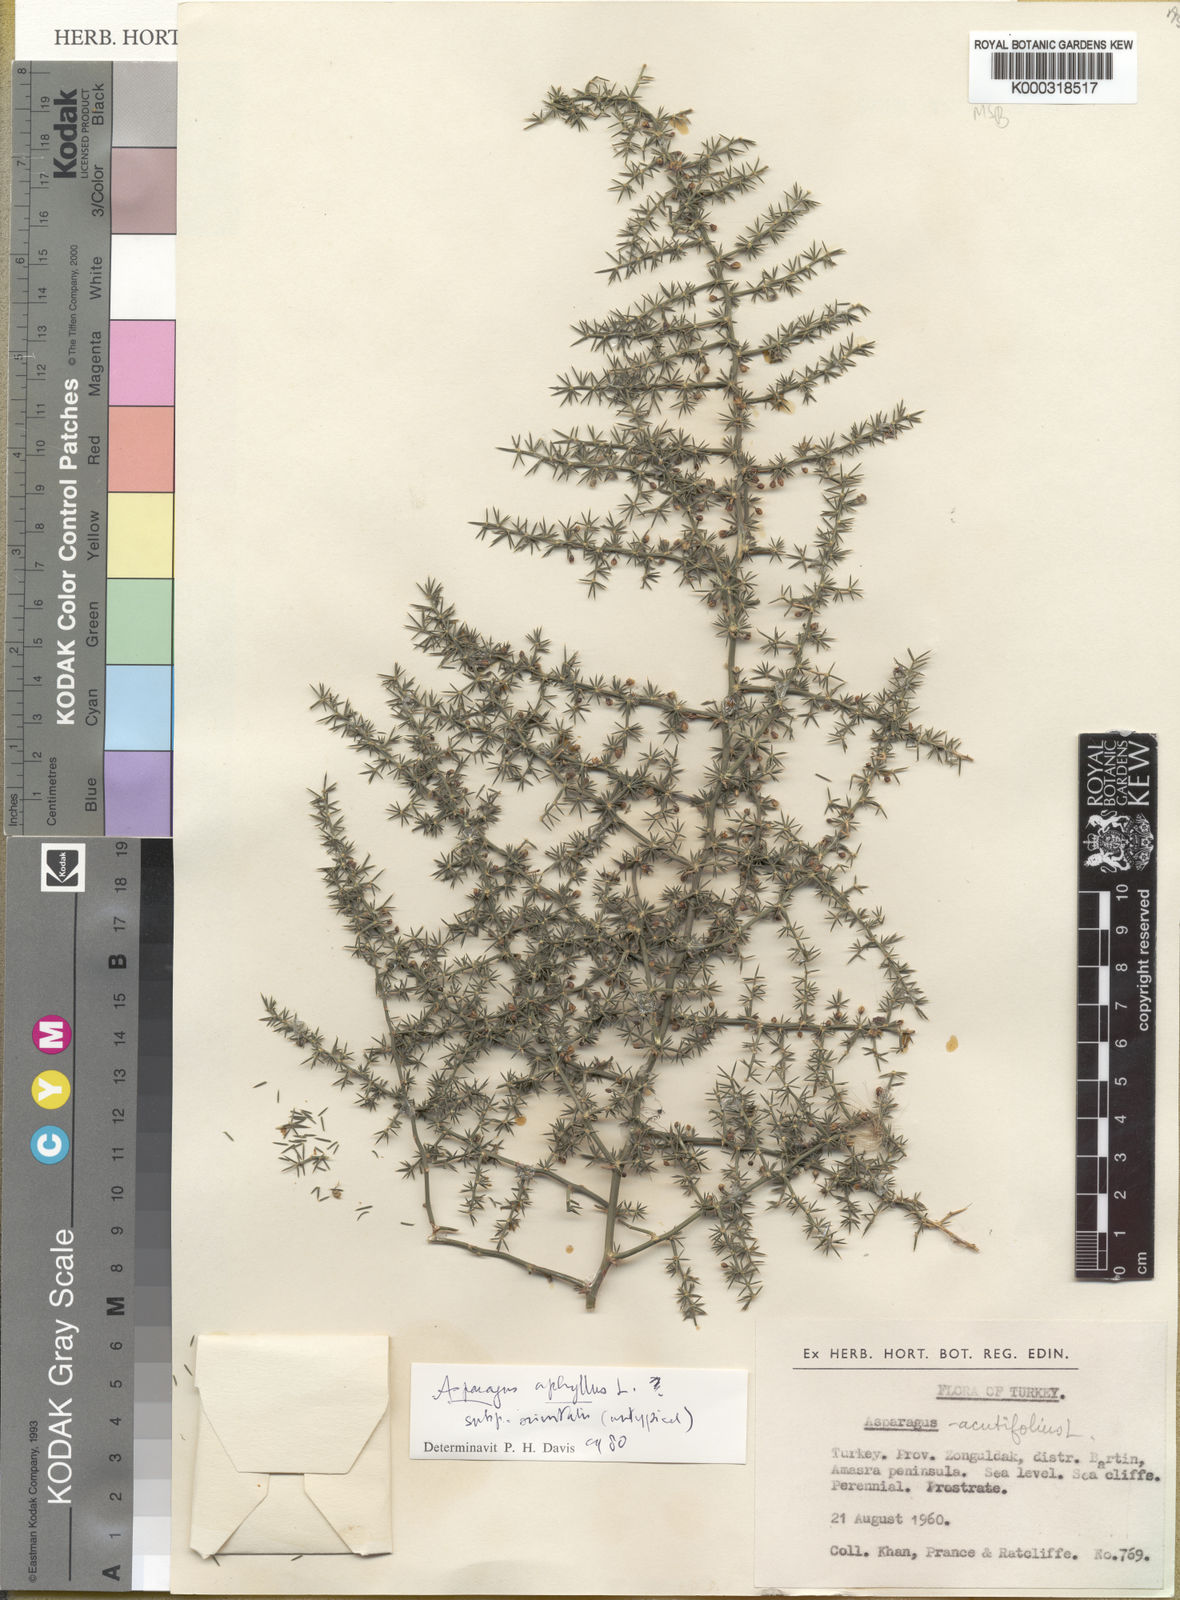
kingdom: Plantae
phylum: Tracheophyta
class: Liliopsida
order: Asparagales
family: Asparagaceae
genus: Asparagus
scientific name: Asparagus aphyllus
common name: Mediterranean asparagus
